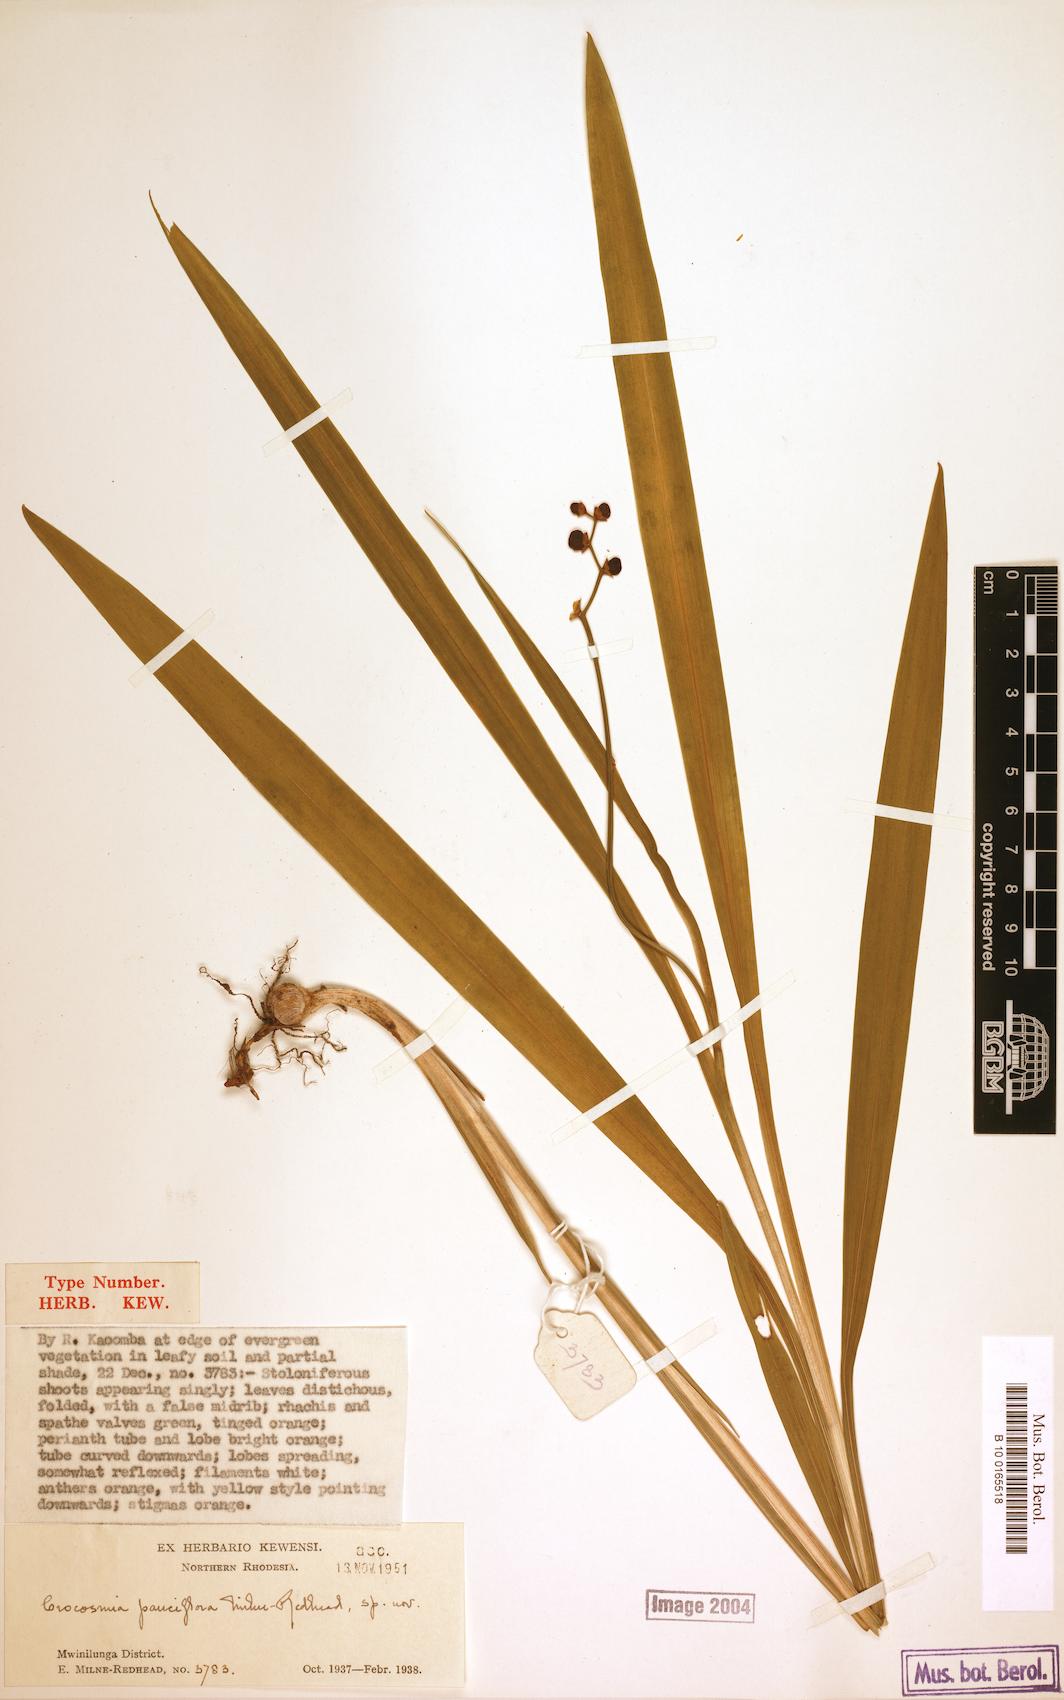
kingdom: Plantae
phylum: Tracheophyta
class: Liliopsida
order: Asparagales
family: Iridaceae
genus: Crocosmia
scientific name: Crocosmia aurea
